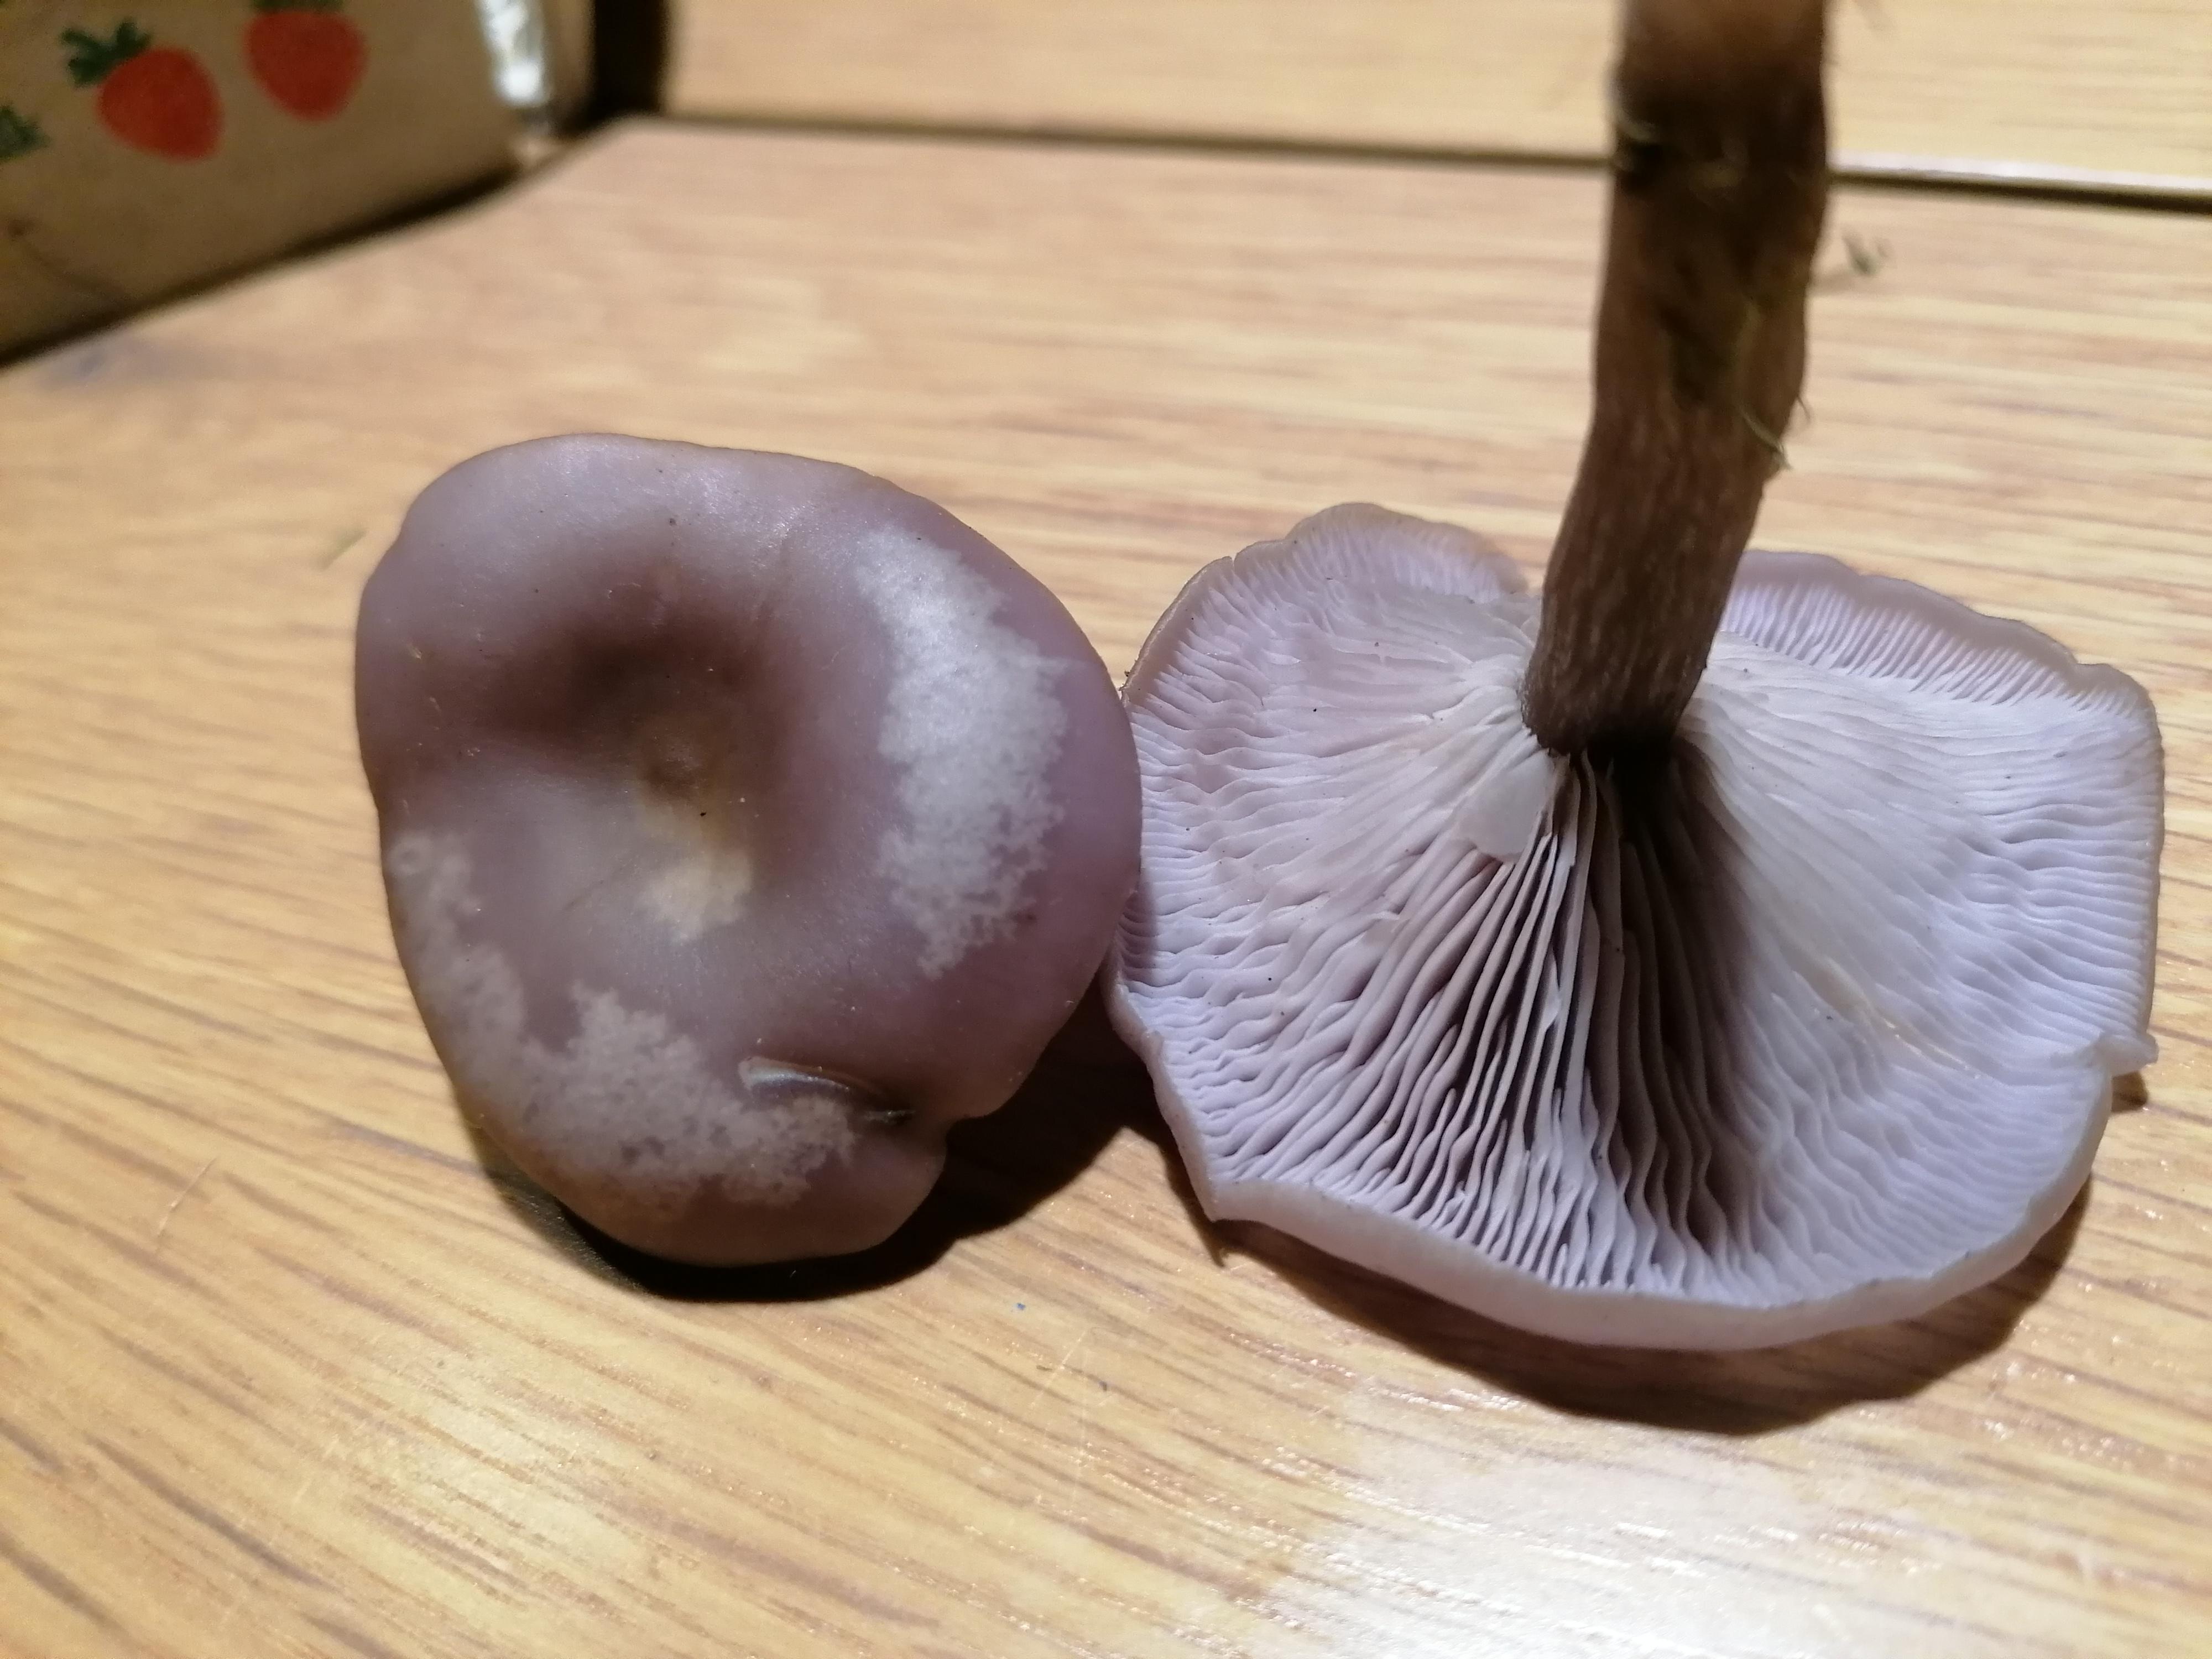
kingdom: Fungi
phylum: Basidiomycota
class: Agaricomycetes
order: Agaricales
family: Tricholomataceae
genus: Lepista
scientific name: Lepista lilacea
